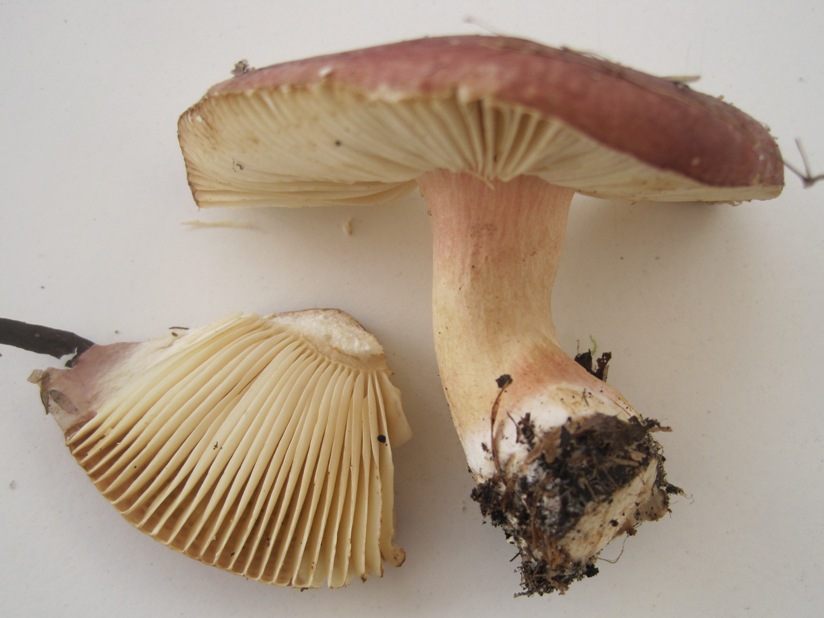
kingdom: Fungi
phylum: Basidiomycota
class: Agaricomycetes
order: Russulales
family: Russulaceae
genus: Russula
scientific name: Russula subrubens
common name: pile-skørhat
